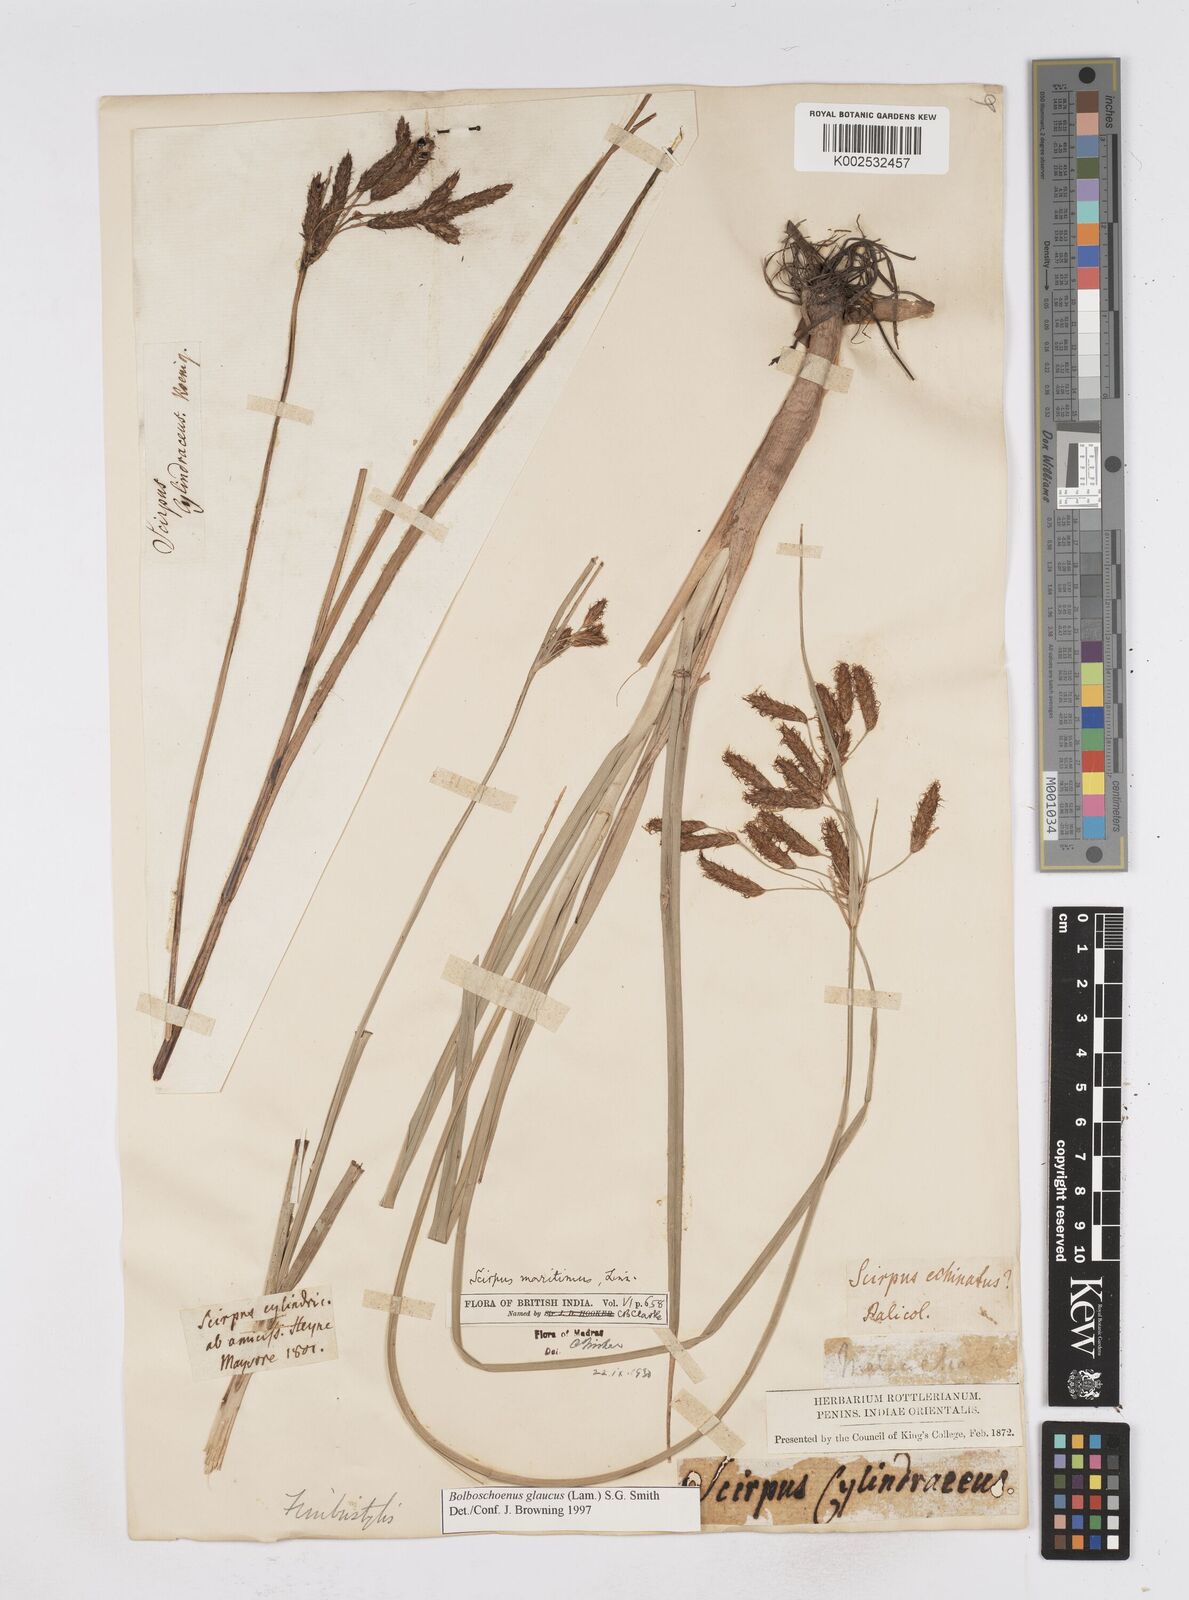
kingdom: Plantae
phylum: Tracheophyta
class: Liliopsida
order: Poales
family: Cyperaceae
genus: Bolboschoenus
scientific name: Bolboschoenus maritimus
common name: Sea club-rush
